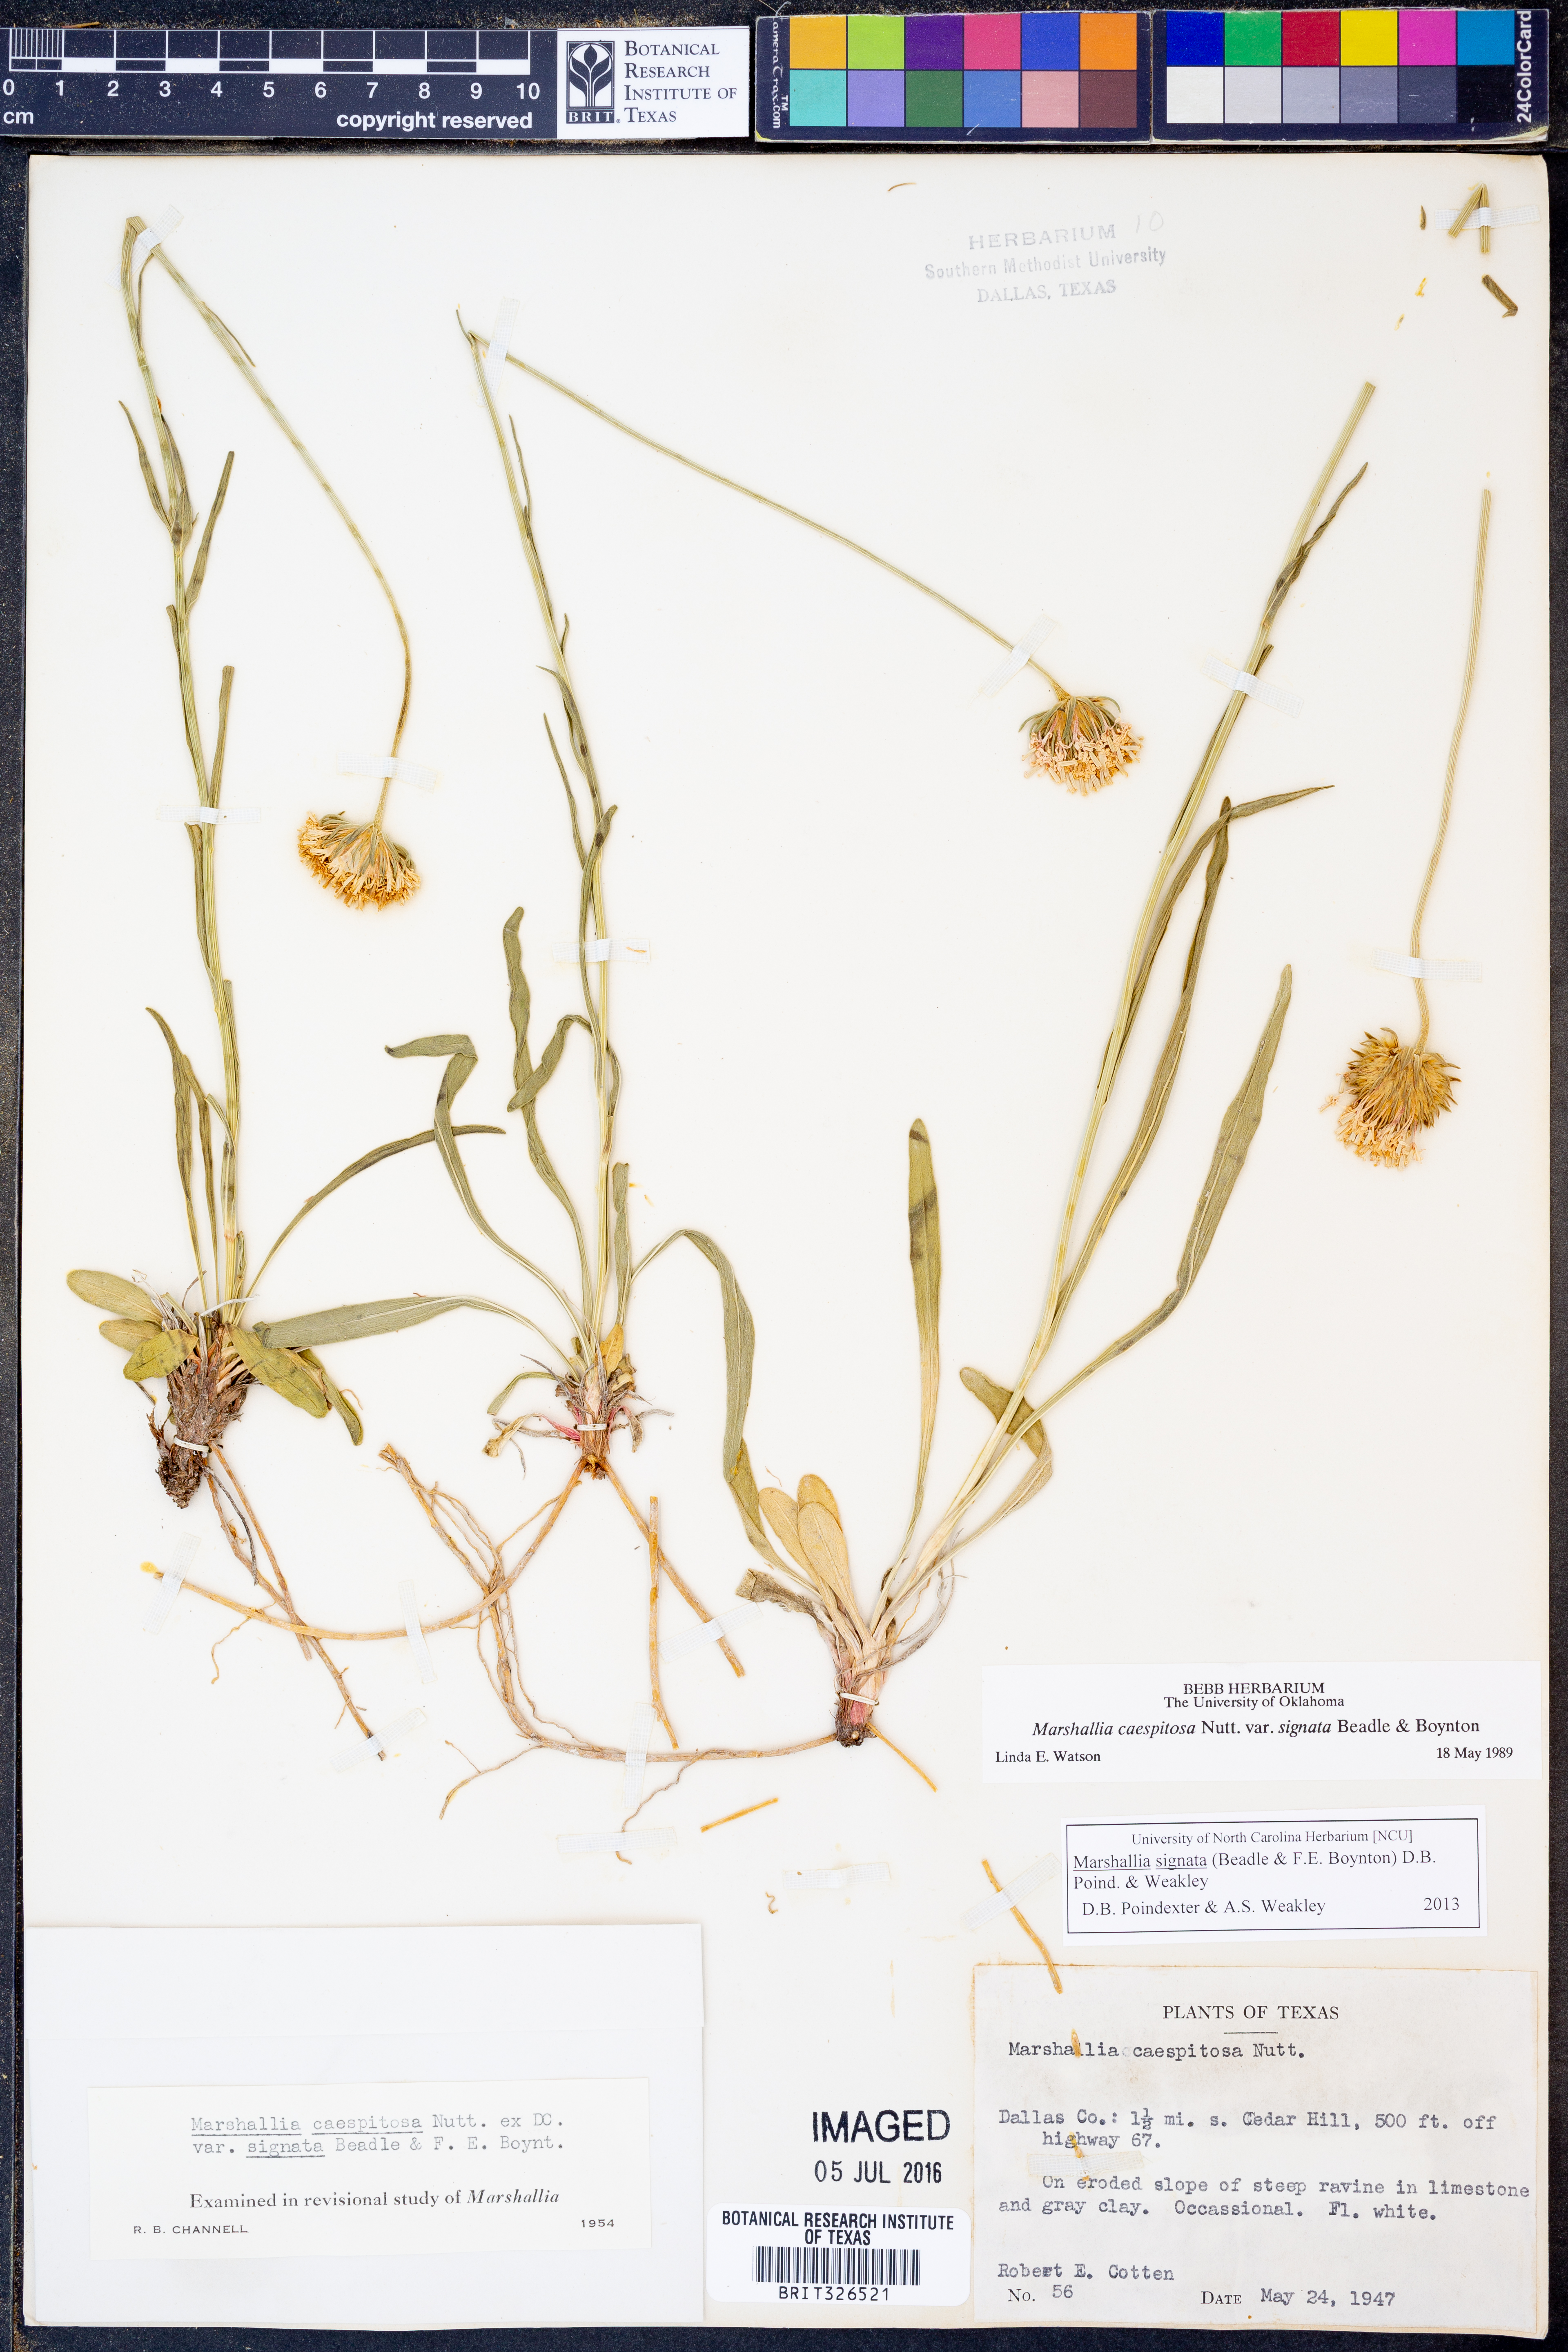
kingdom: Plantae
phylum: Tracheophyta
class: Magnoliopsida
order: Asterales
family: Asteraceae
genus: Marshallia
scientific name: Marshallia
